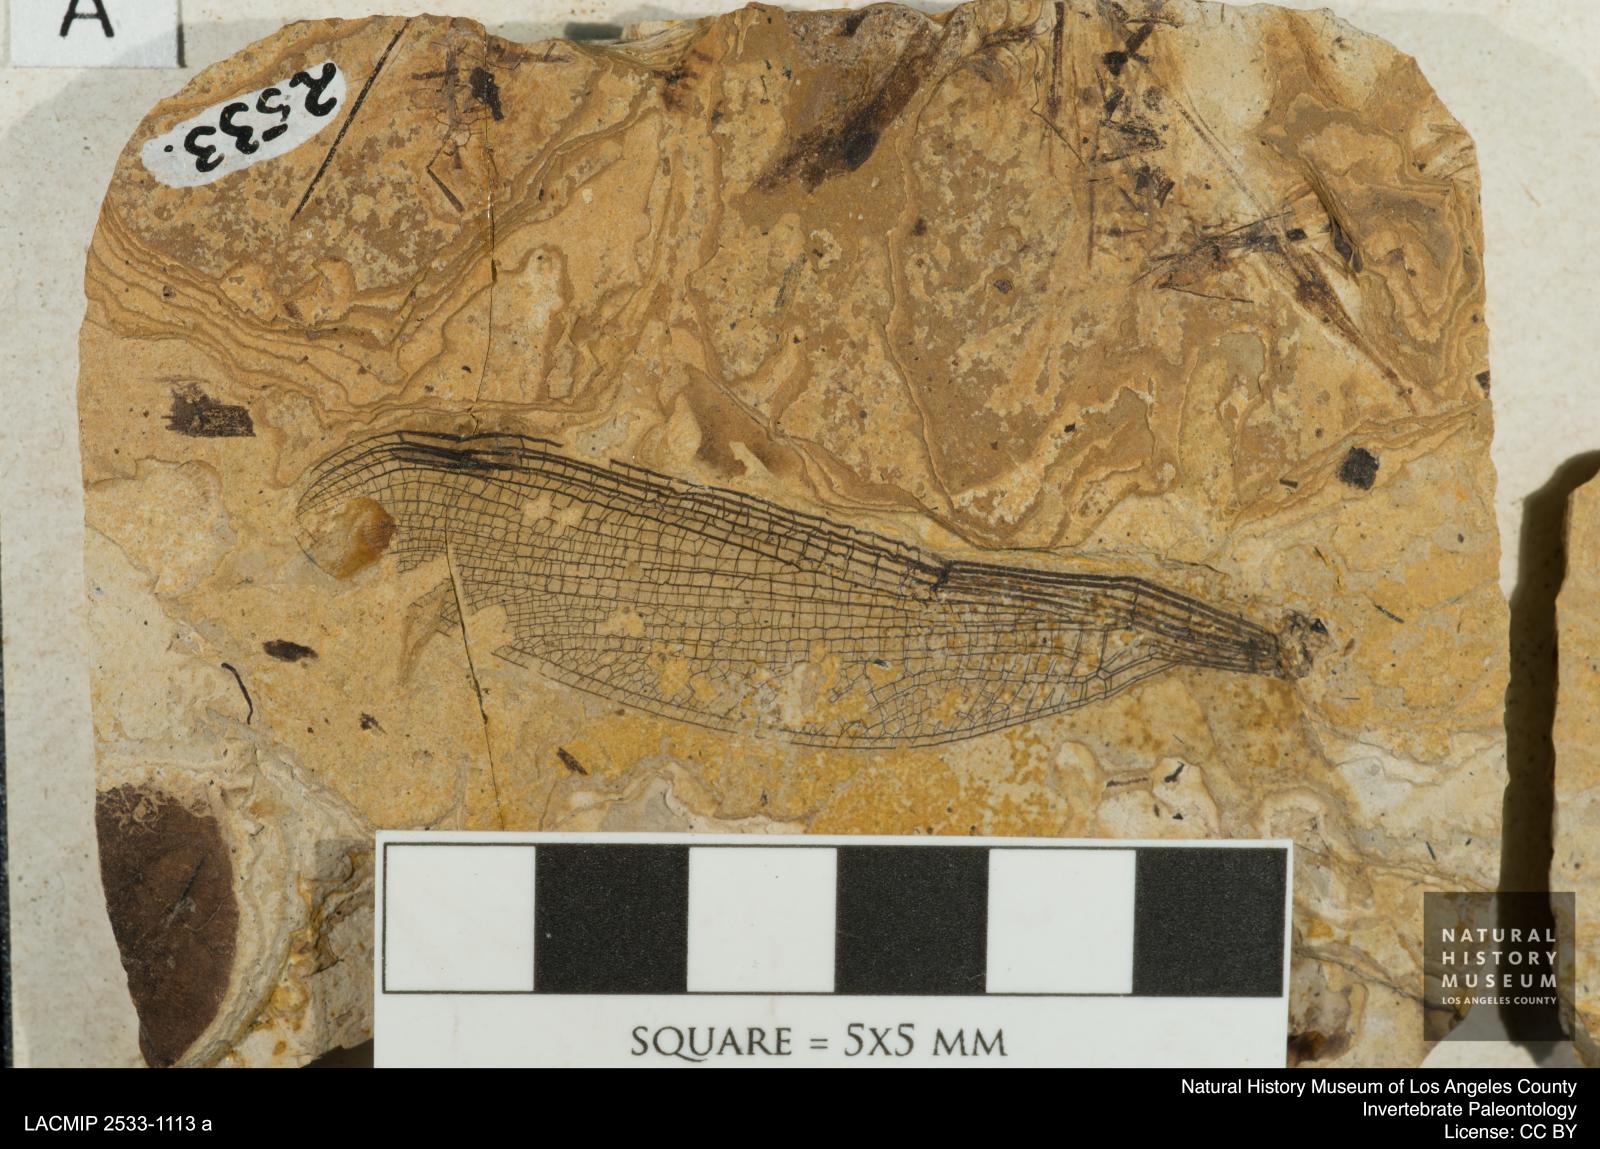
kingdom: Animalia
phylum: Arthropoda
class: Insecta
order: Odonata
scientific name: Odonata
